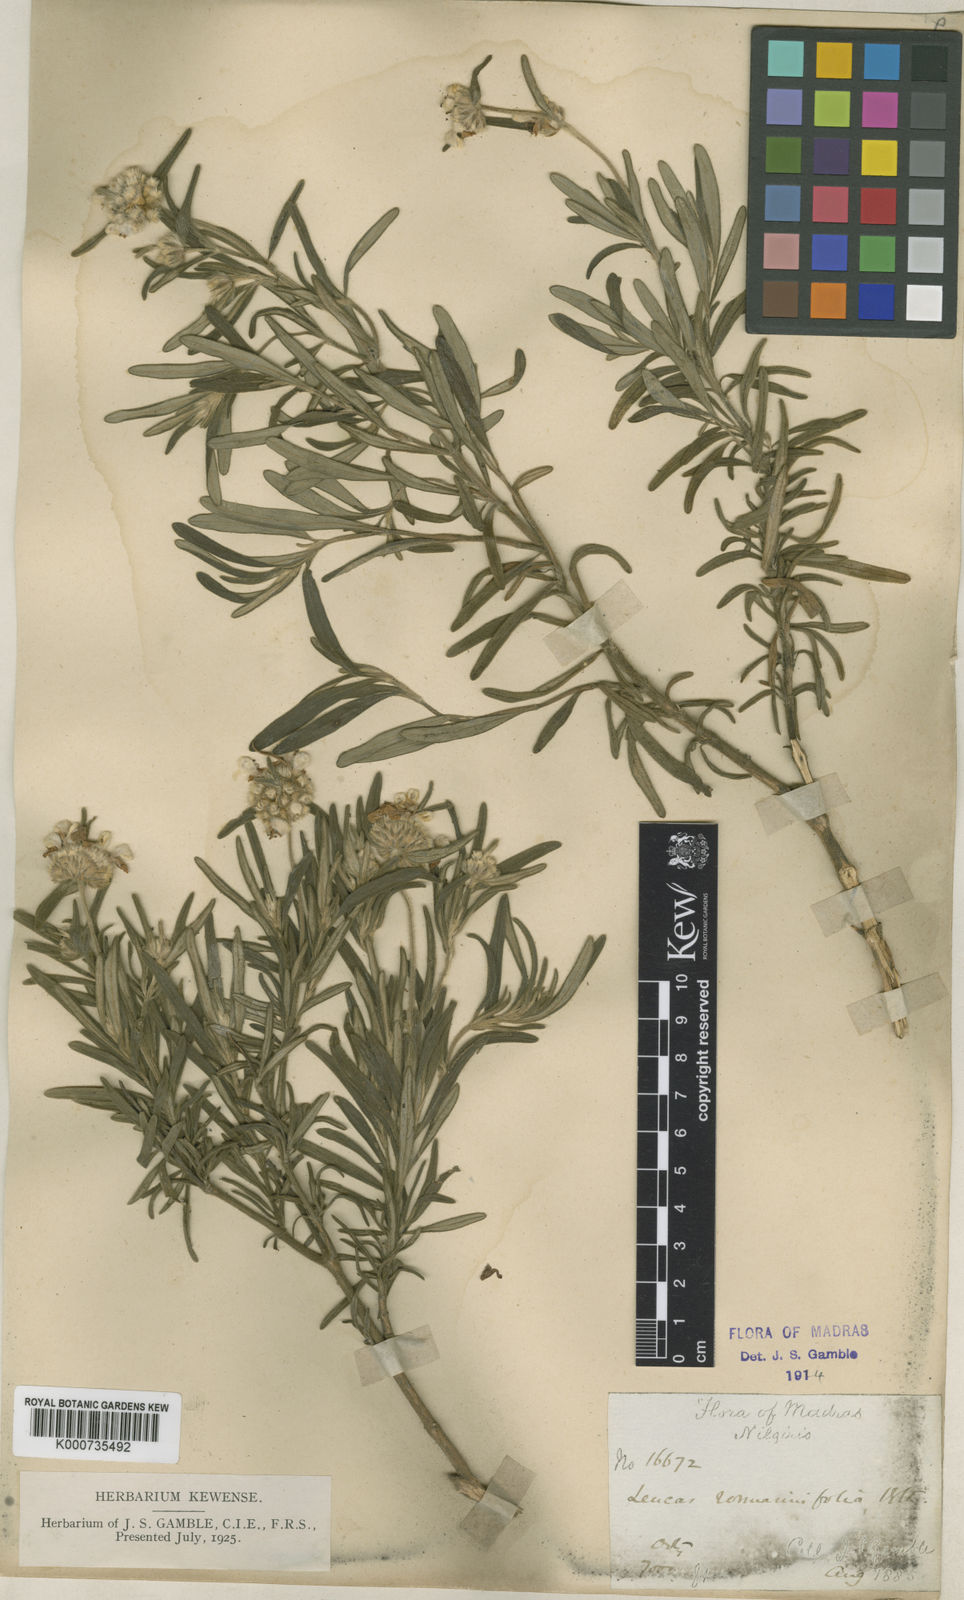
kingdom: Plantae
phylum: Tracheophyta
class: Magnoliopsida
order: Lamiales
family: Lamiaceae
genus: Leucas
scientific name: Leucas rosmarinifolia
